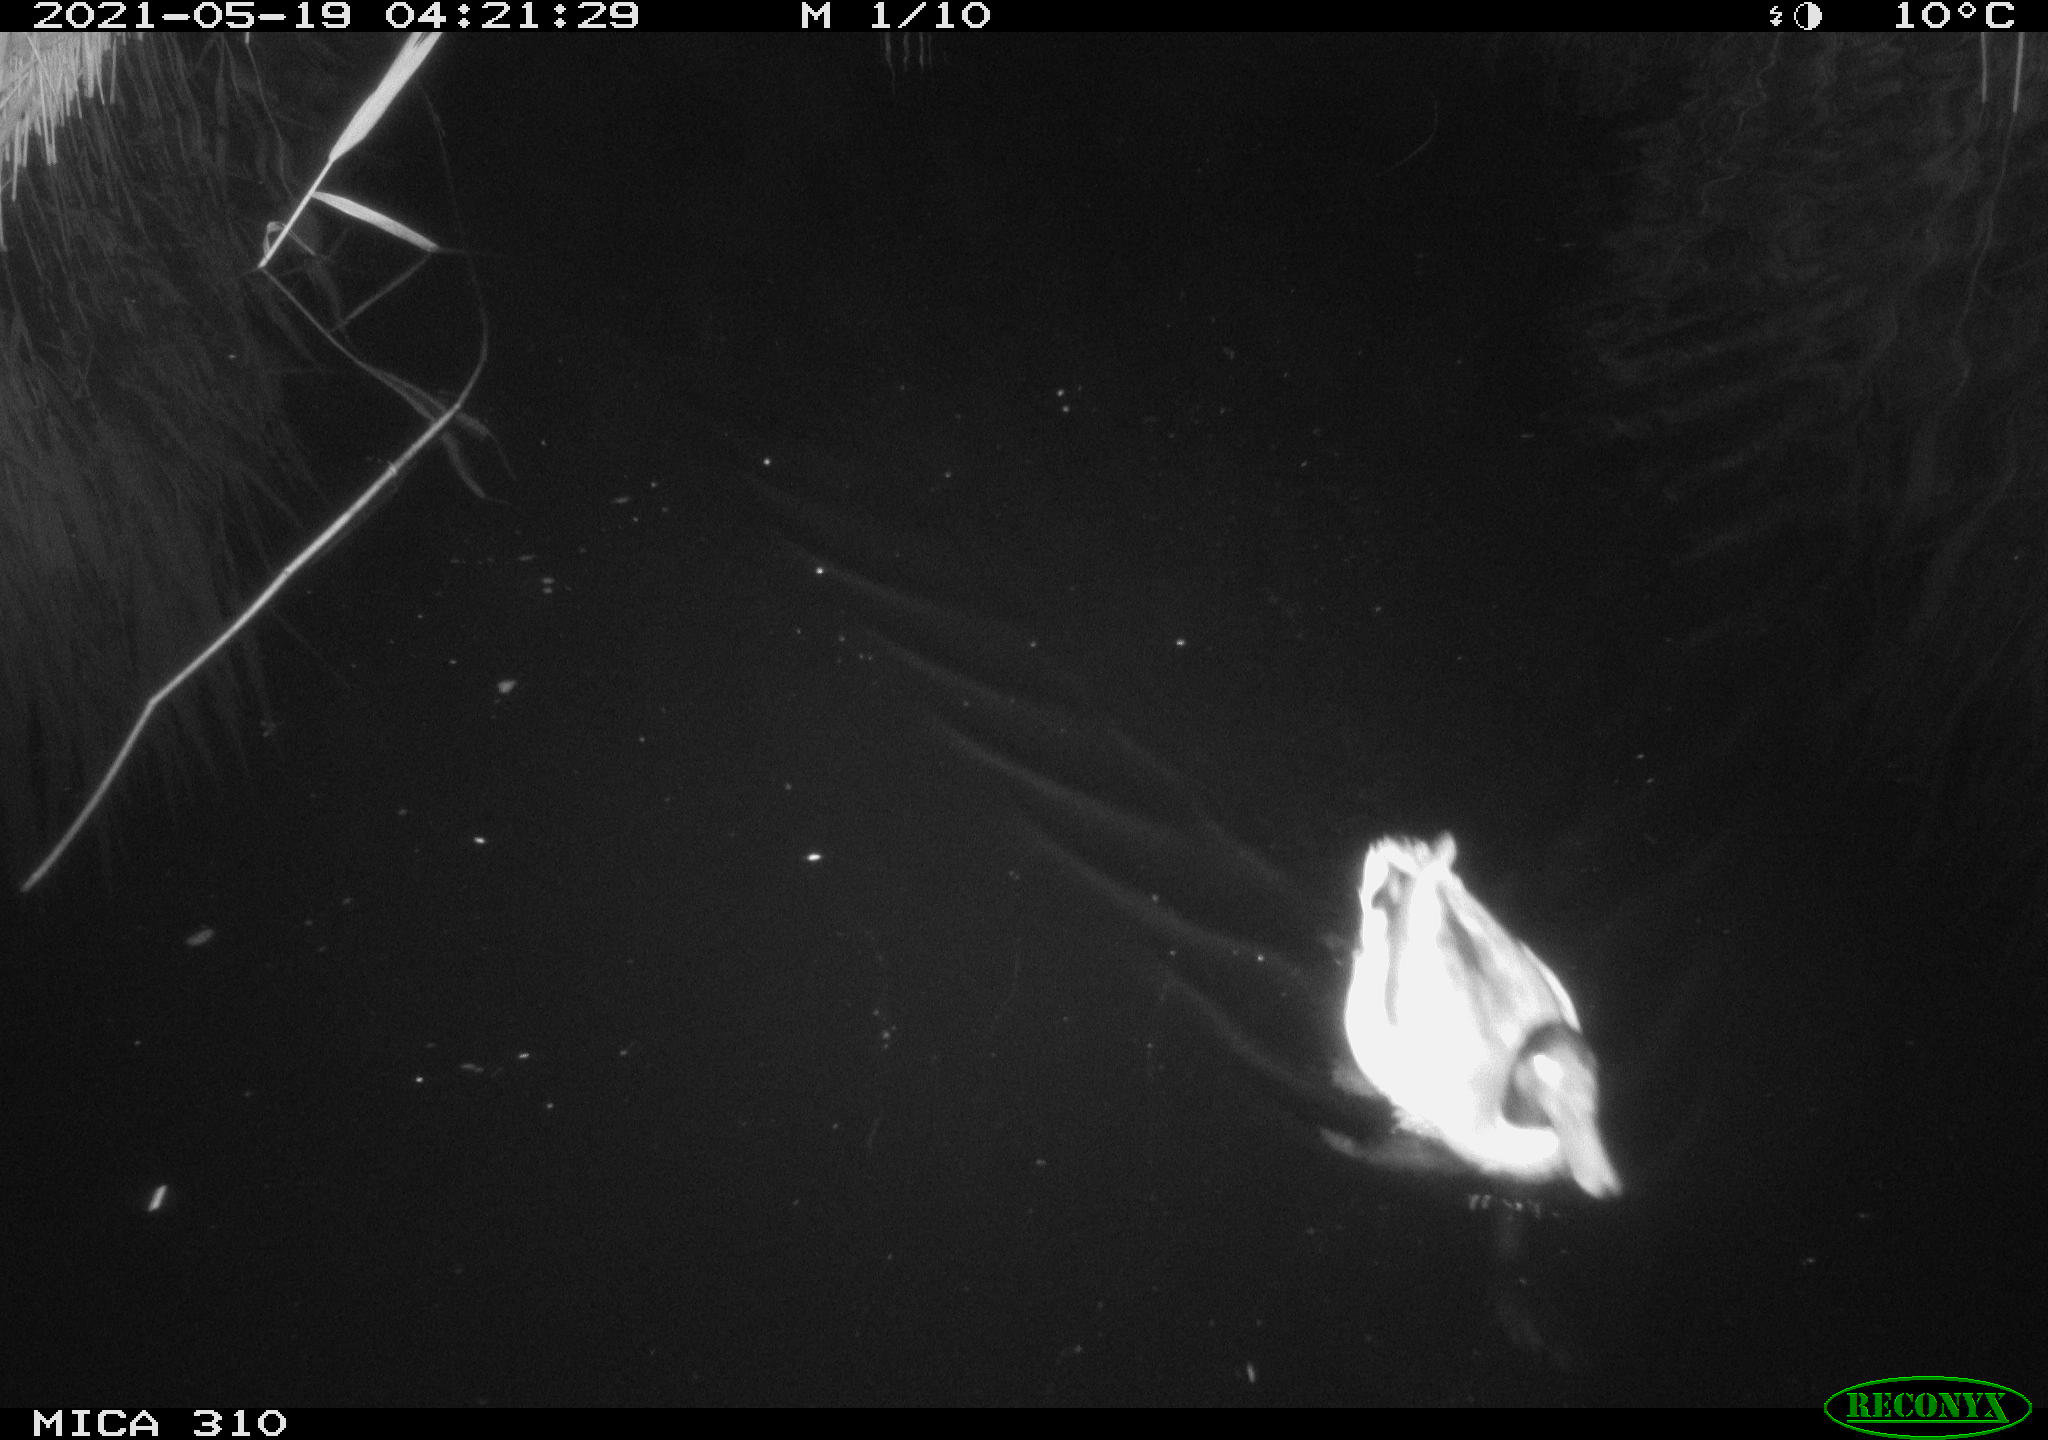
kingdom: Animalia
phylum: Chordata
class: Aves
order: Anseriformes
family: Anatidae
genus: Anas
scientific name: Anas platyrhynchos
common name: Mallard
